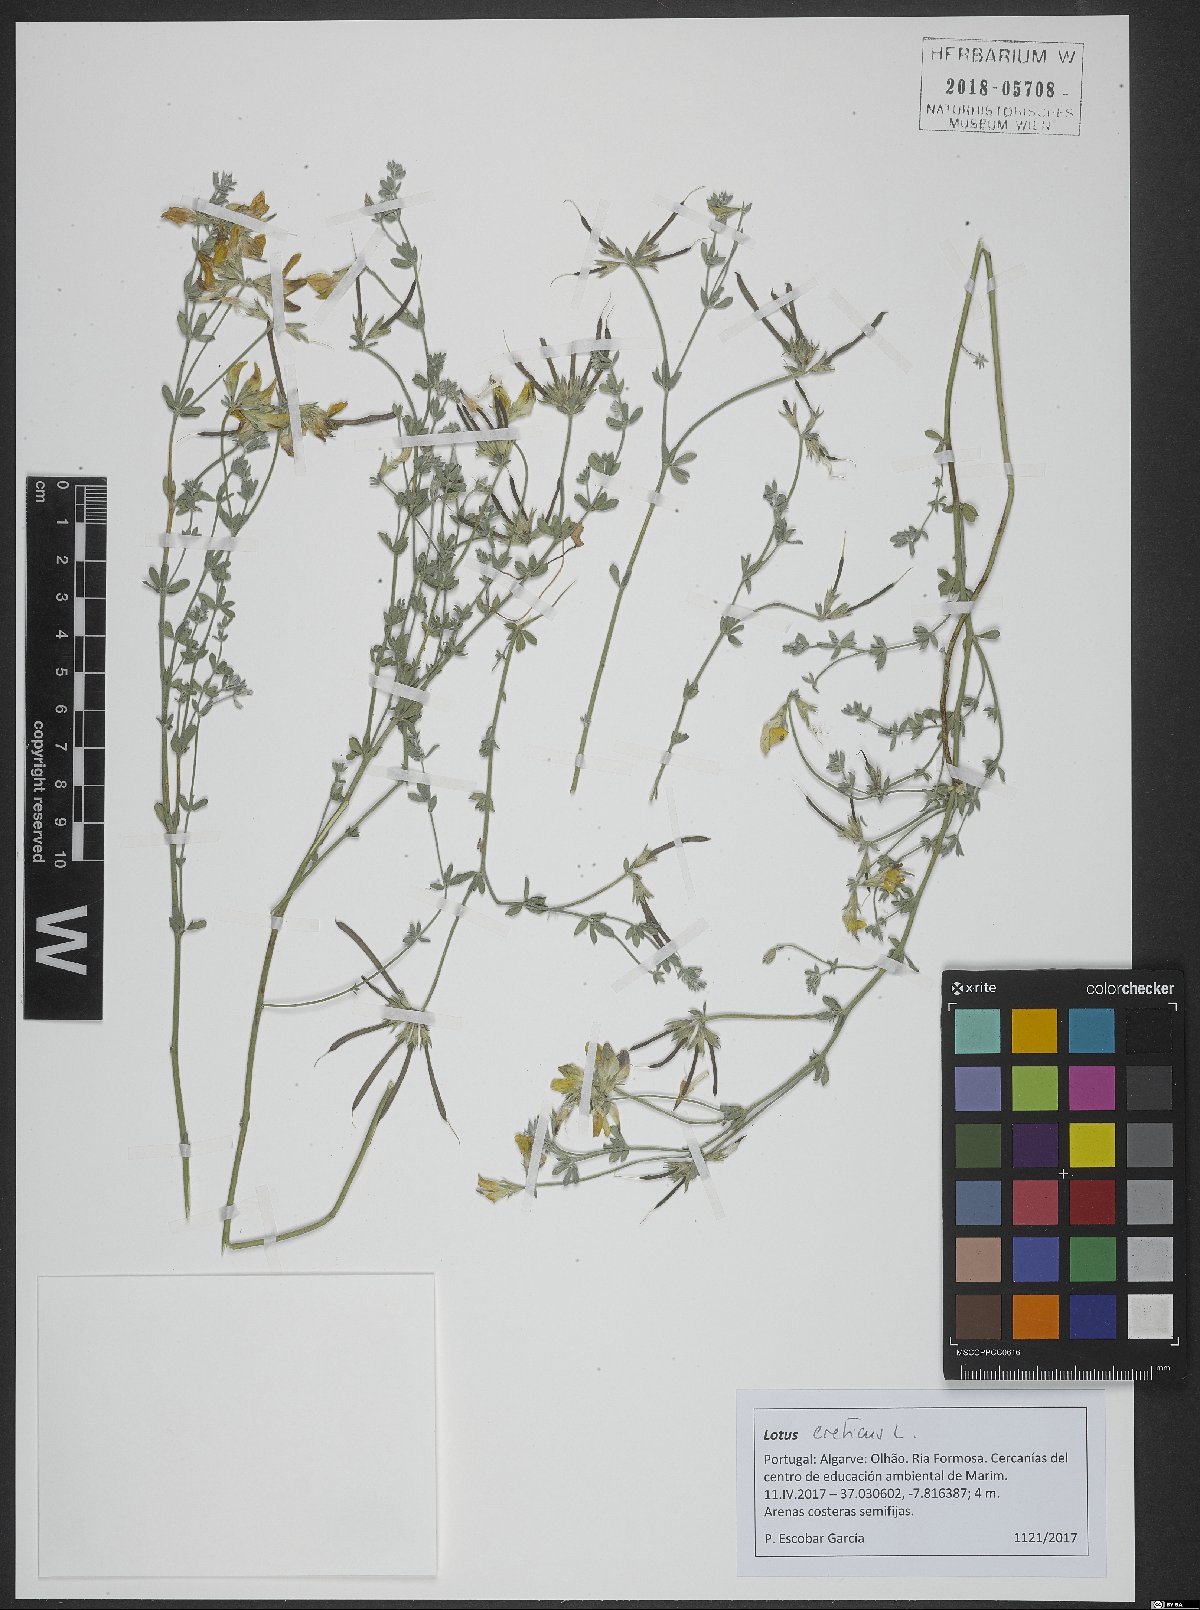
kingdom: Plantae
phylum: Tracheophyta
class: Magnoliopsida
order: Fabales
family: Fabaceae
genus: Lotus
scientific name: Lotus creticus
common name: Cretan bird's-foot trefoil
